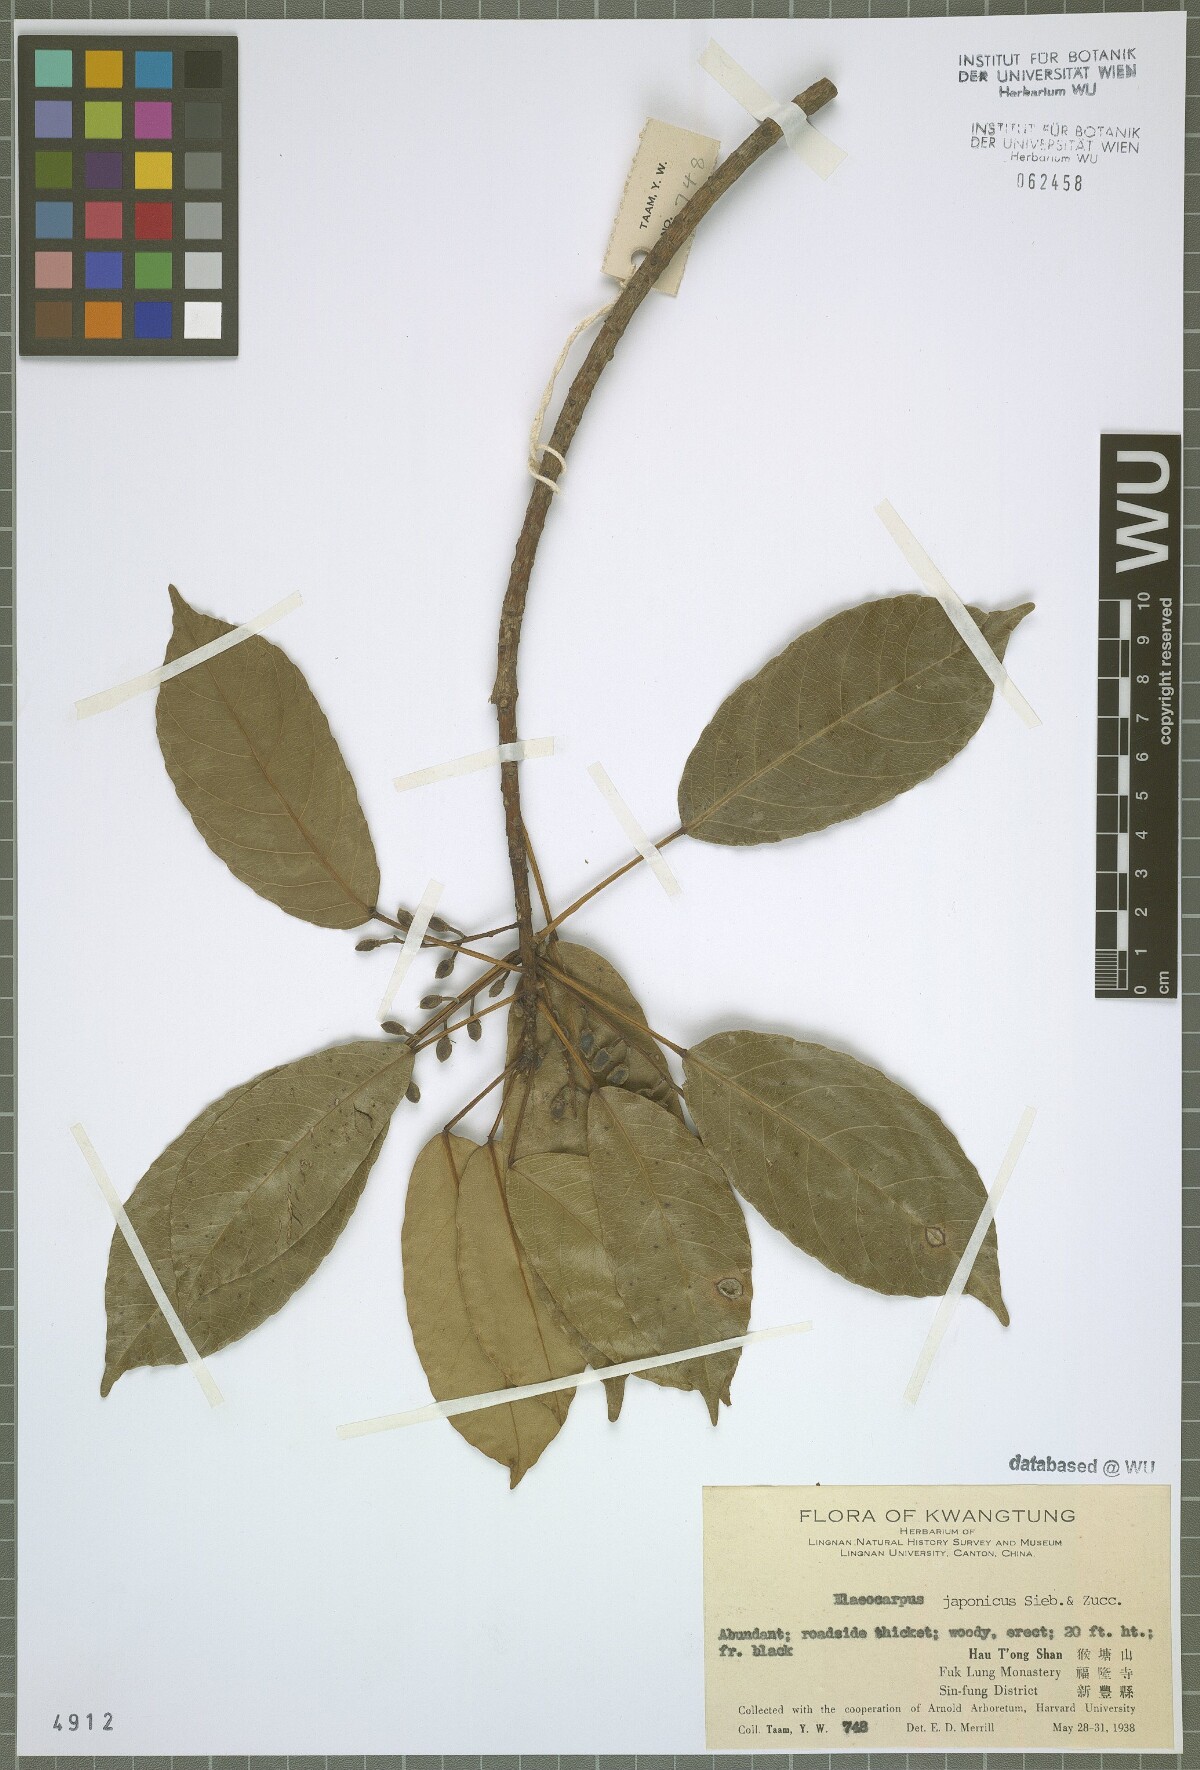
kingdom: Plantae
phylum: Tracheophyta
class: Magnoliopsida
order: Oxalidales
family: Elaeocarpaceae
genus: Elaeocarpus
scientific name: Elaeocarpus japonicus
